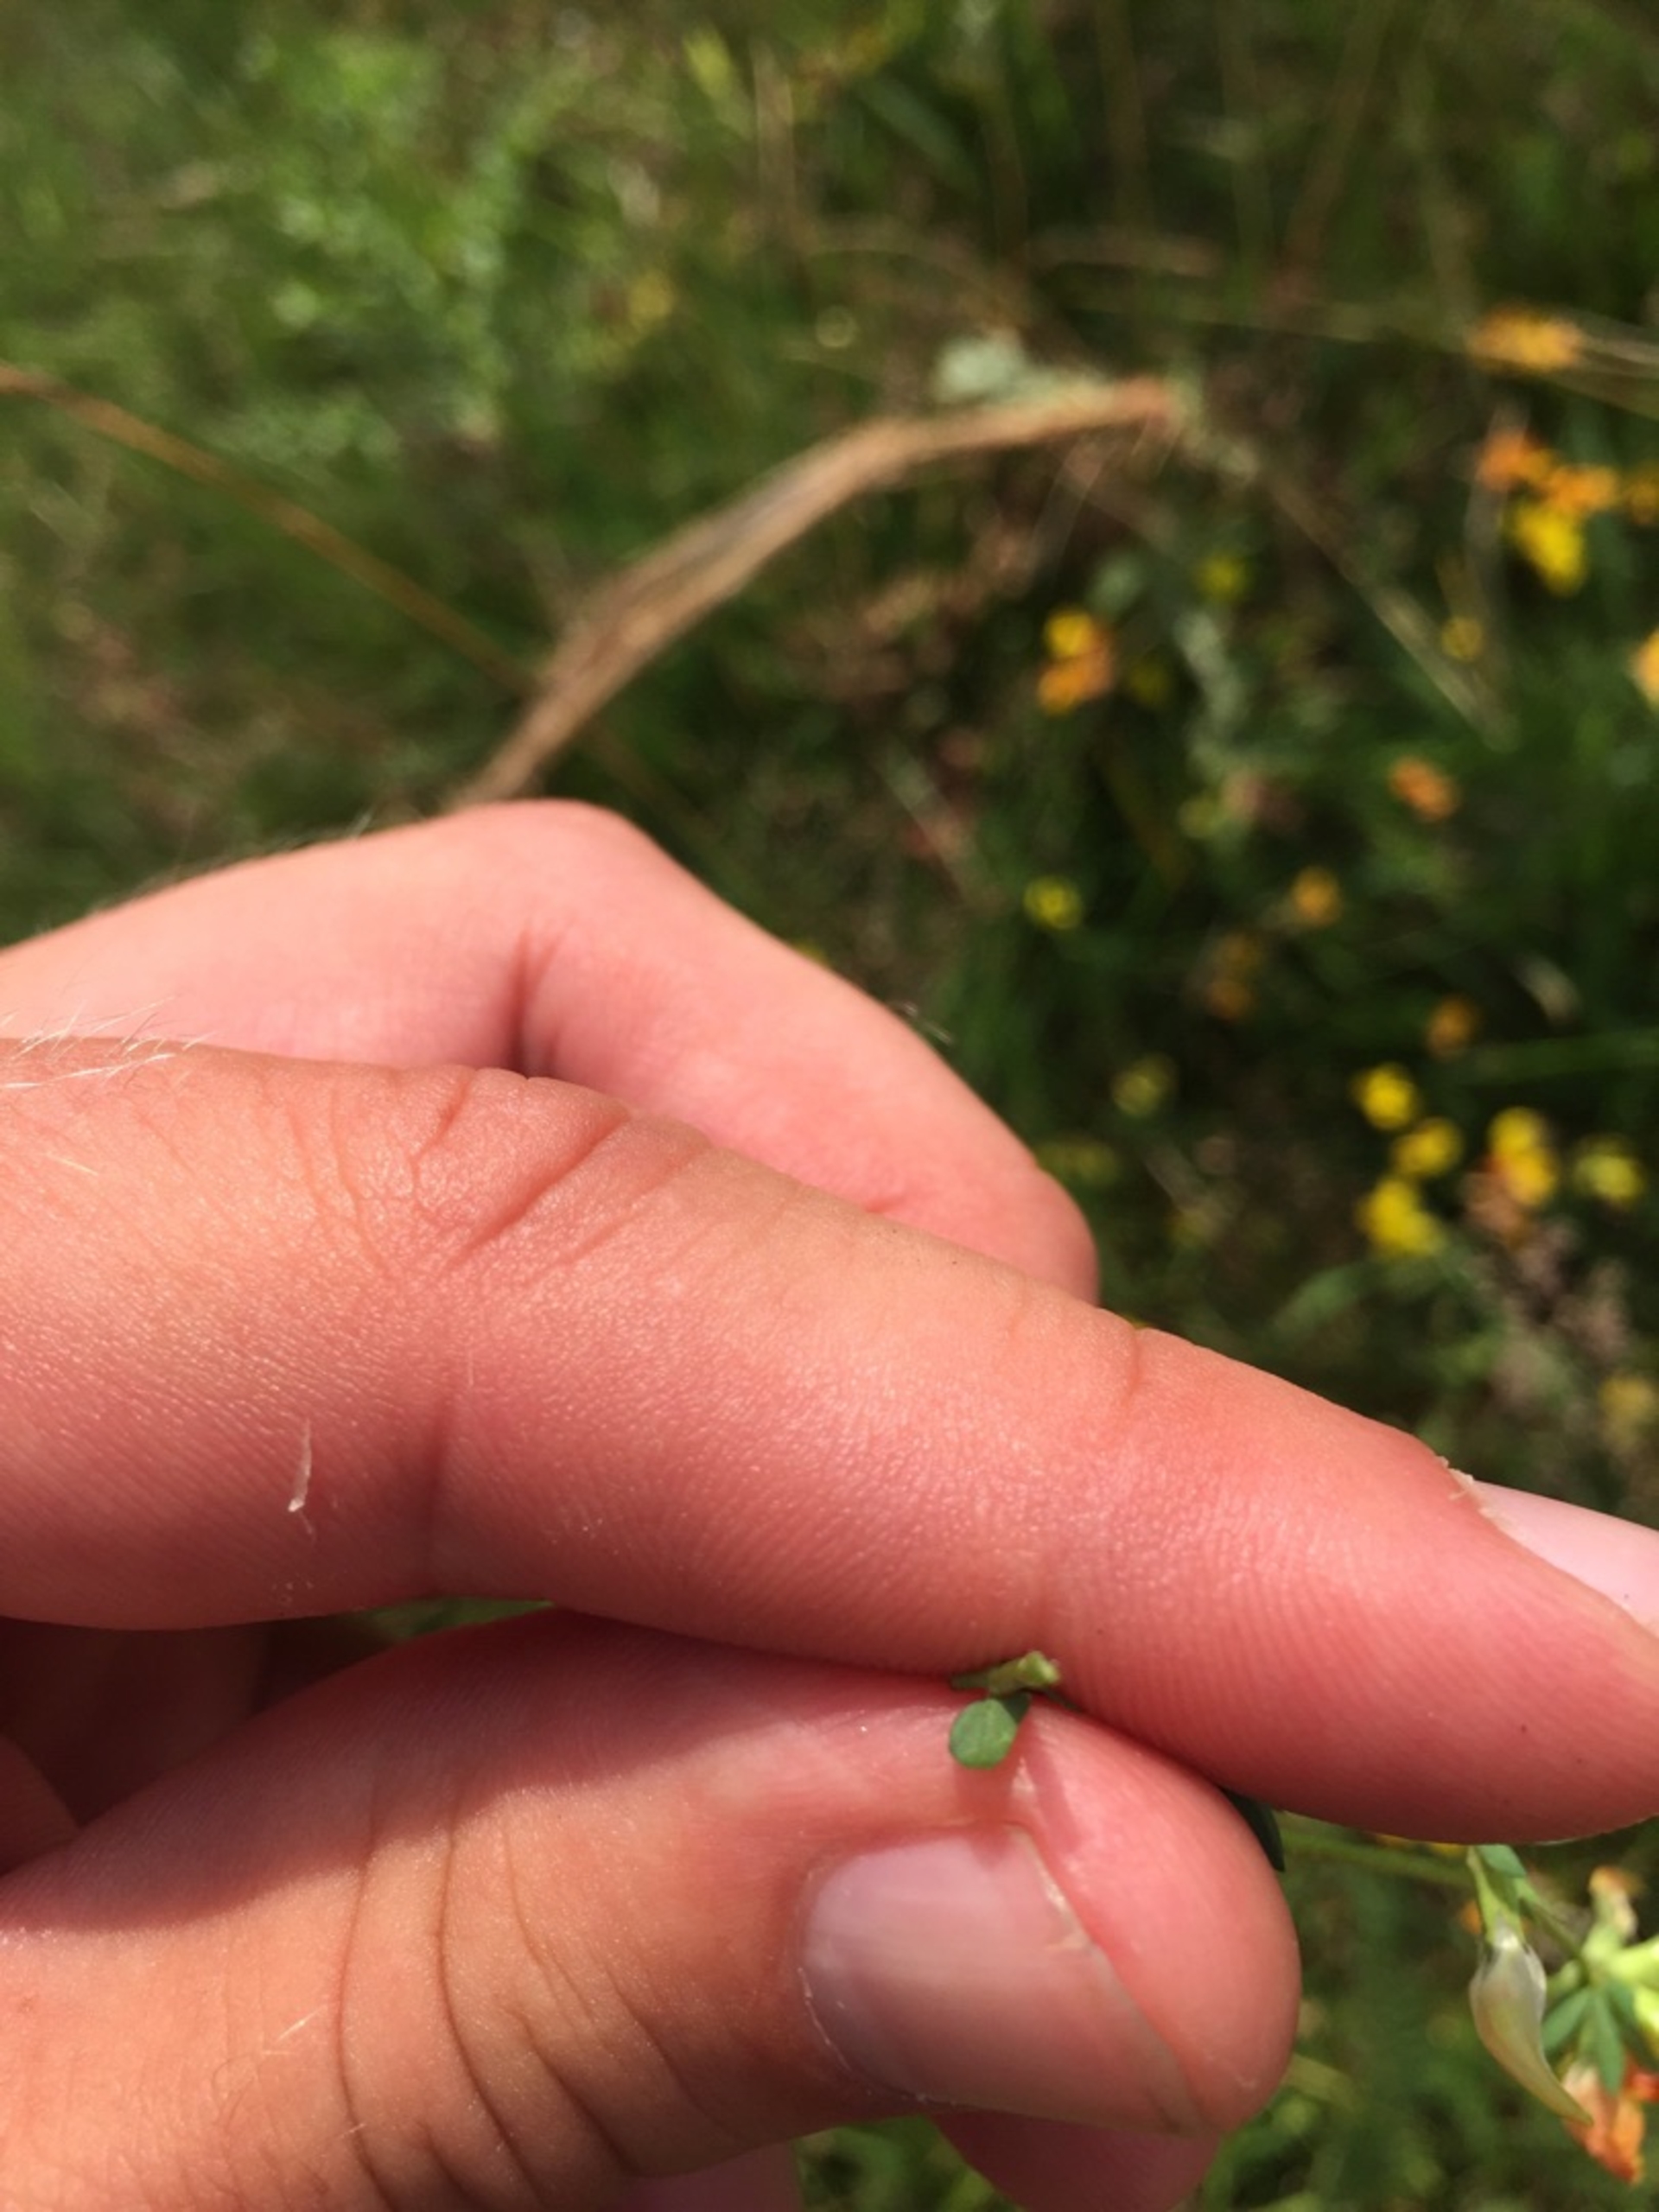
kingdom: Plantae
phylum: Tracheophyta
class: Magnoliopsida
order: Fabales
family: Fabaceae
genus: Lotus
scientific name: Lotus corniculatus
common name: Almindelig kællingetand
